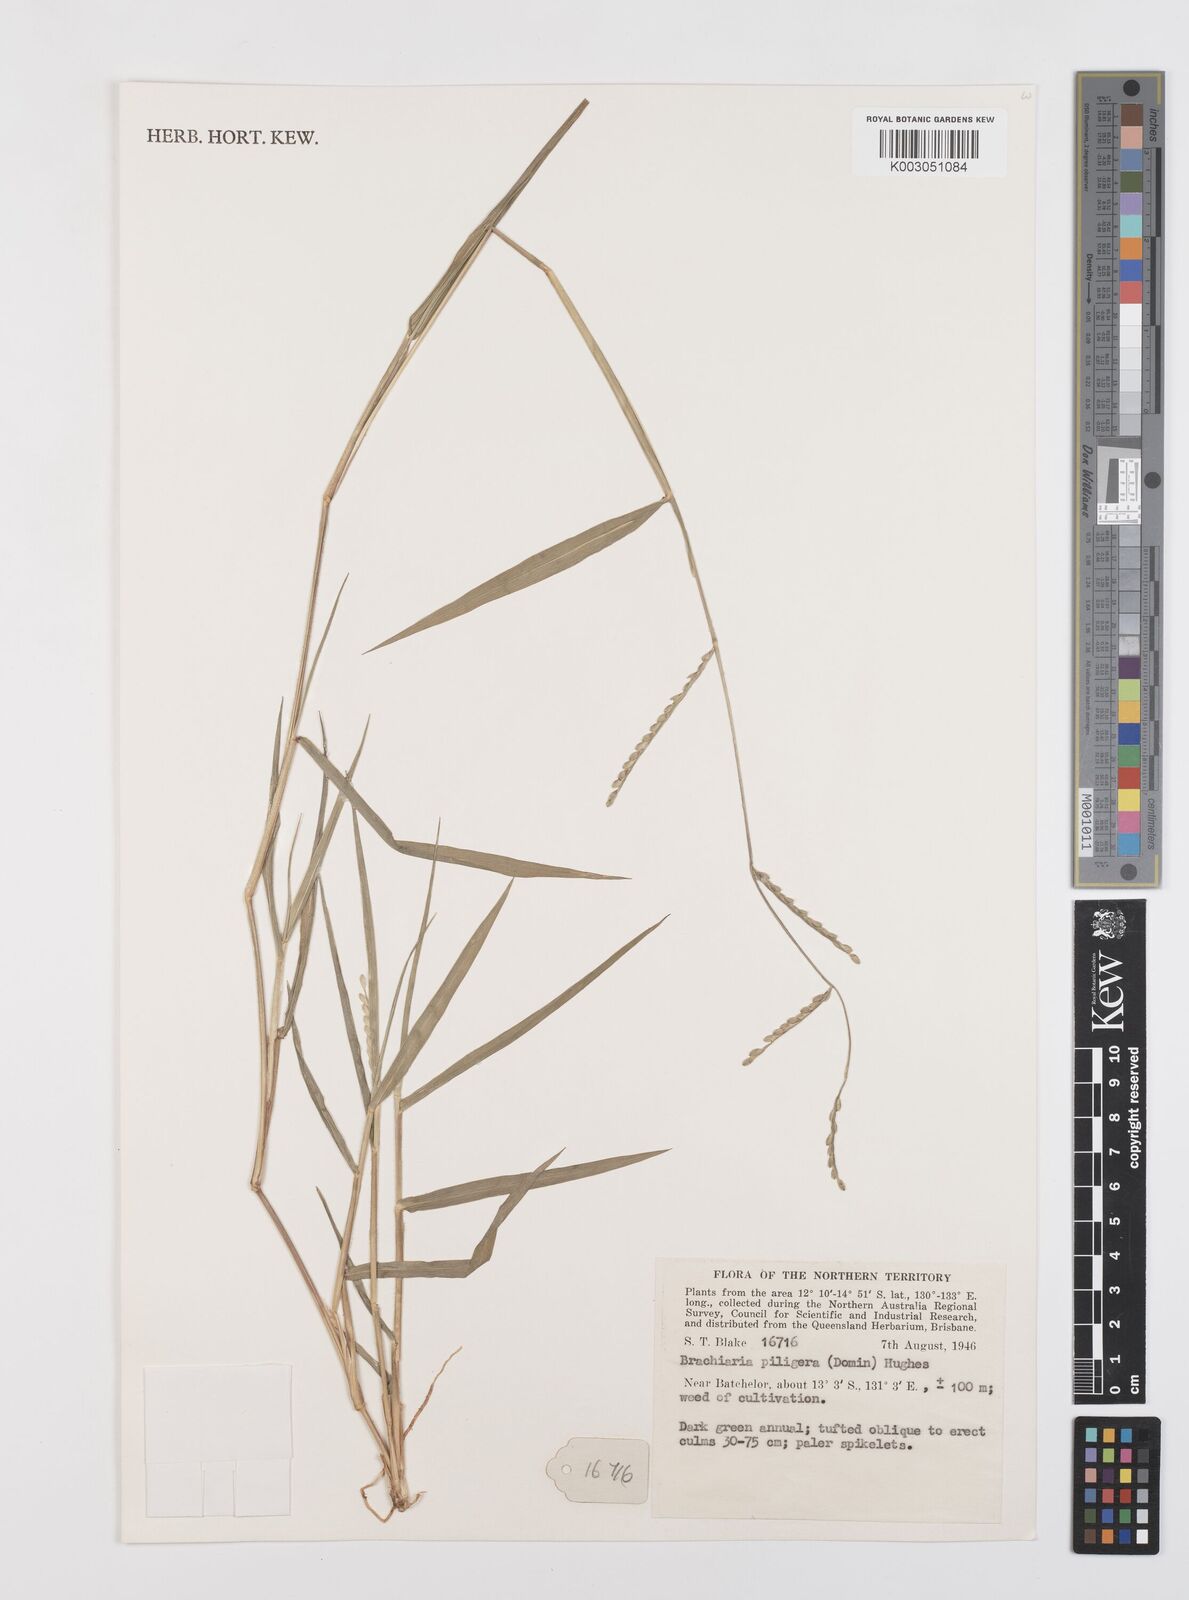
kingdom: Plantae
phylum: Tracheophyta
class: Liliopsida
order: Poales
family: Poaceae
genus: Urochloa
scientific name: Urochloa piligera
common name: Wattle signalgrass
